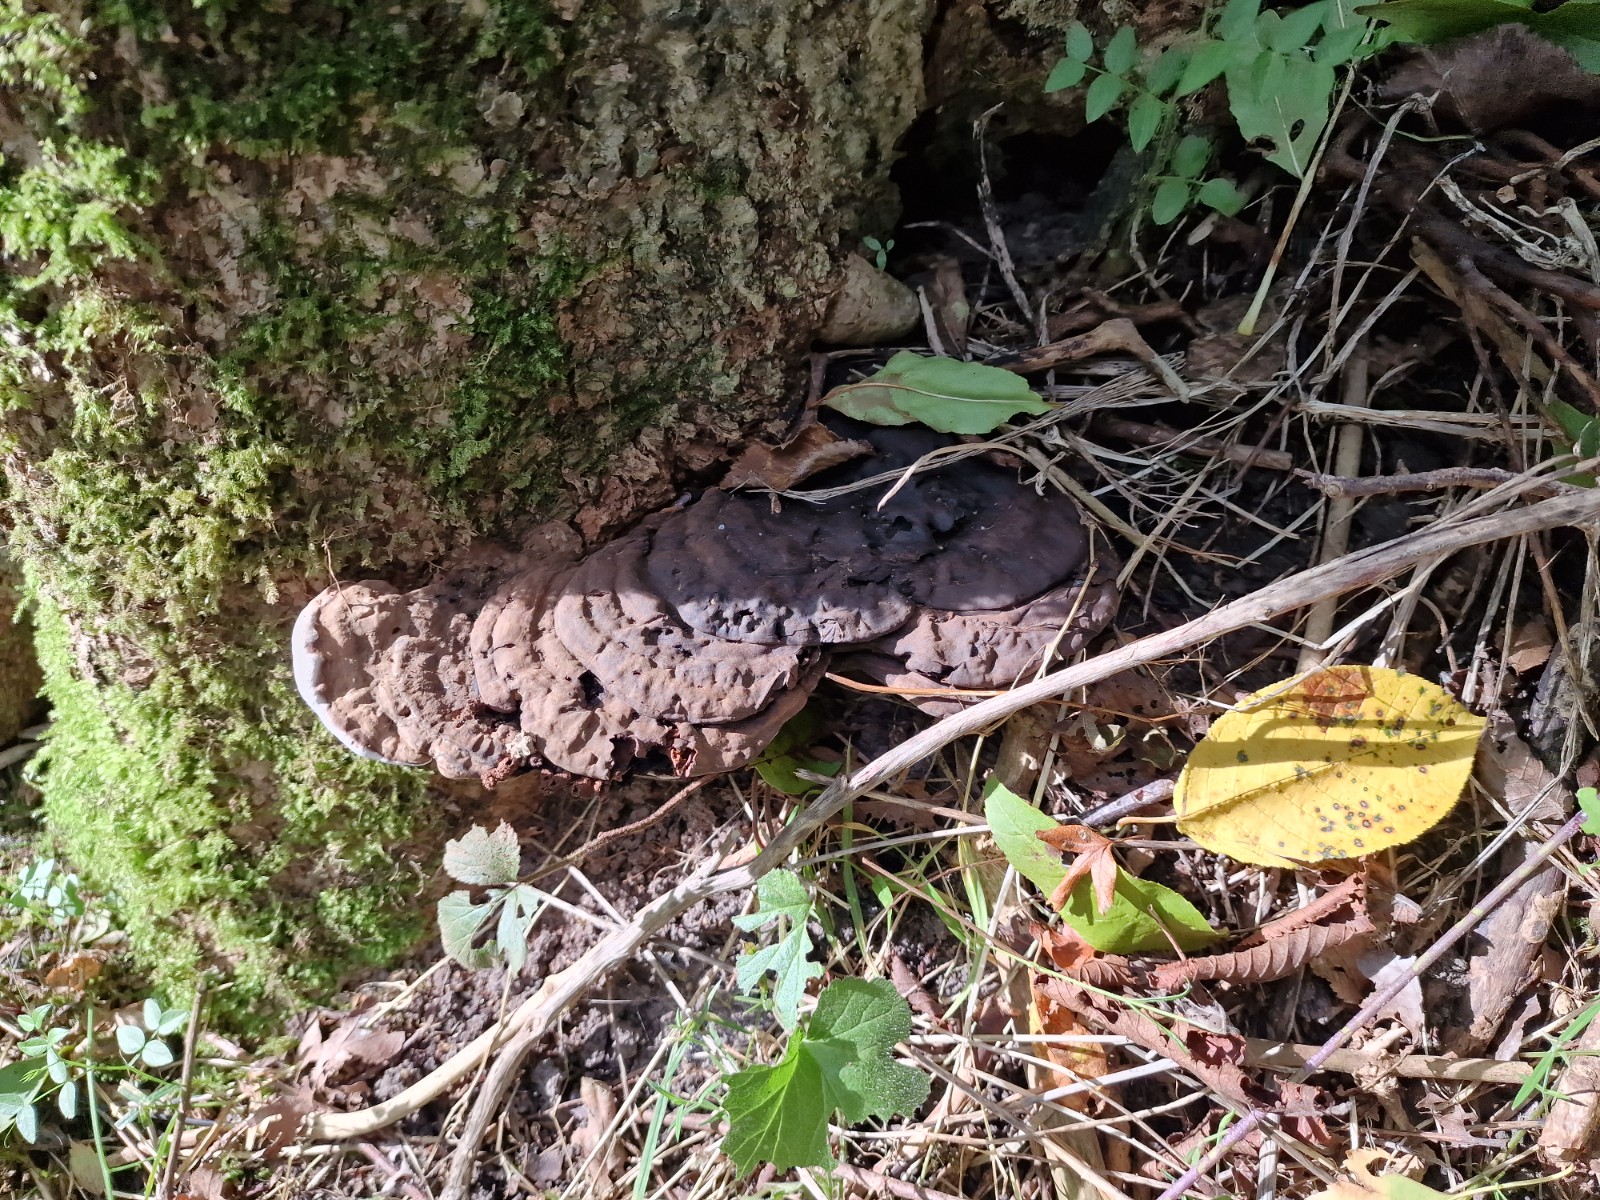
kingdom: Fungi
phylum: Basidiomycota
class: Agaricomycetes
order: Polyporales
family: Polyporaceae
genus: Ganoderma
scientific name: Ganoderma applanatum
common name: flad lakporesvamp
